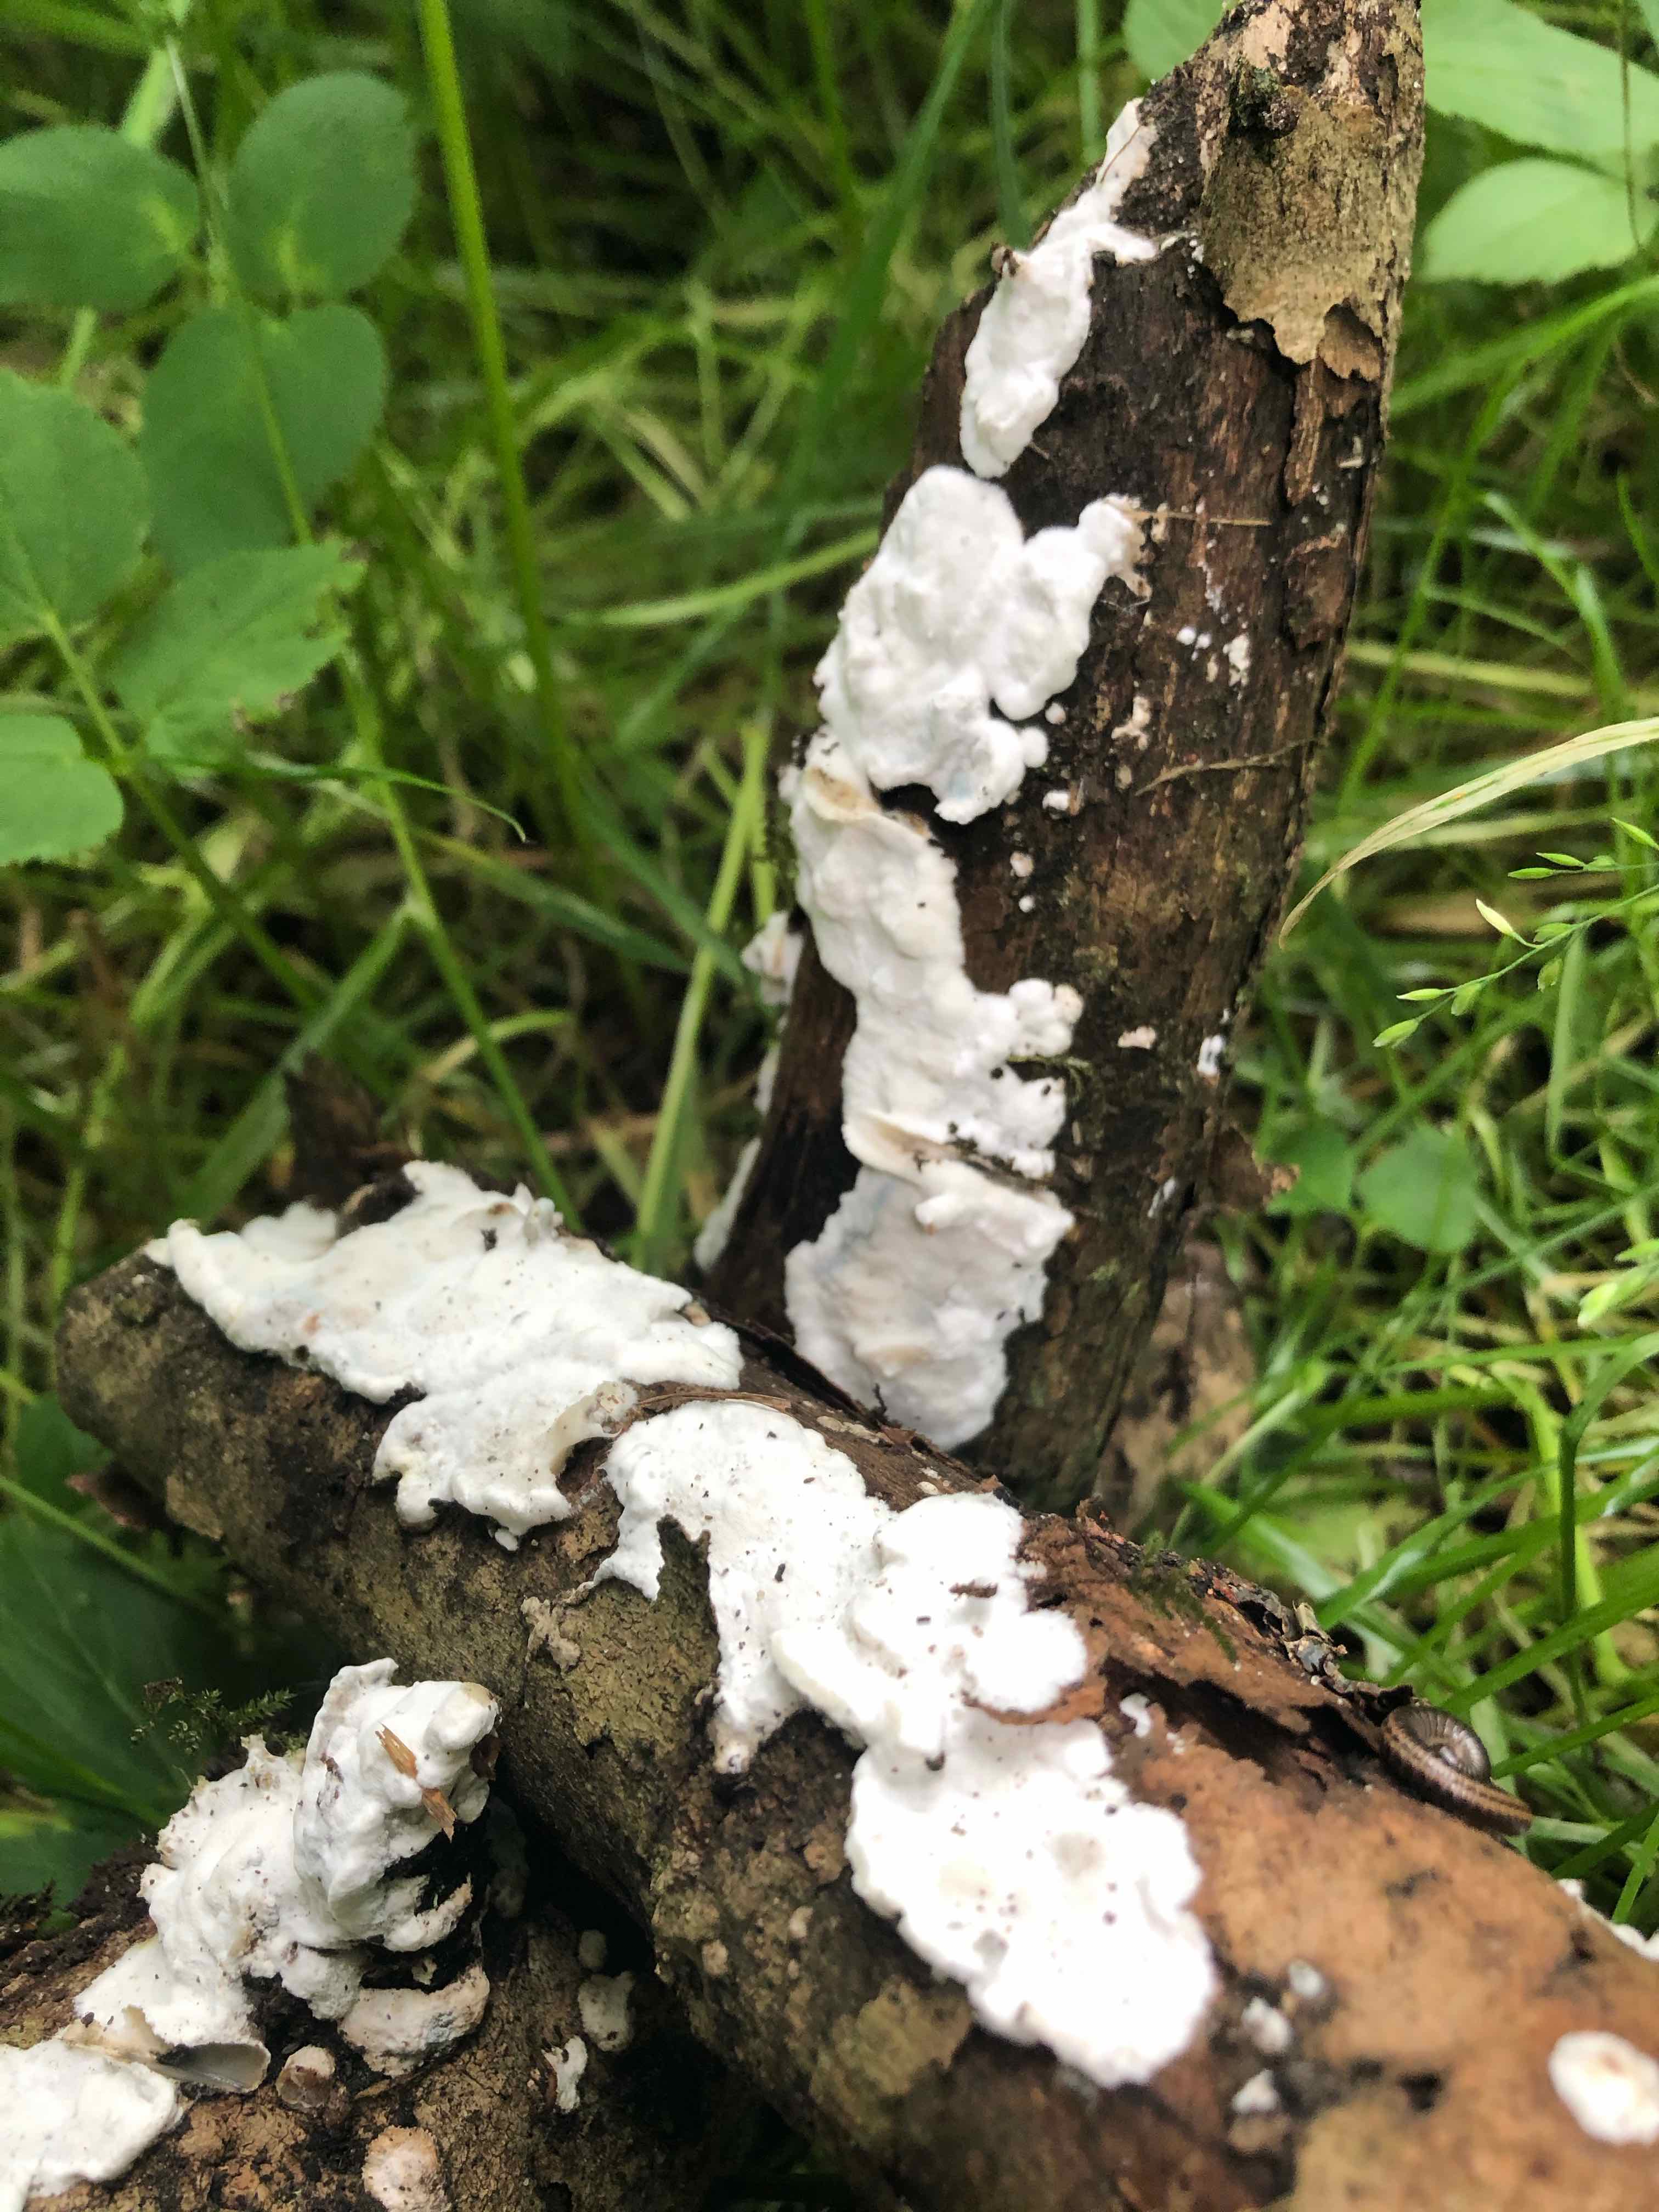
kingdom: Fungi
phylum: Basidiomycota
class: Agaricomycetes
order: Polyporales
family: Incrustoporiaceae
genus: Skeletocutis
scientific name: Skeletocutis nemoralis
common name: stor krystalporesvamp
